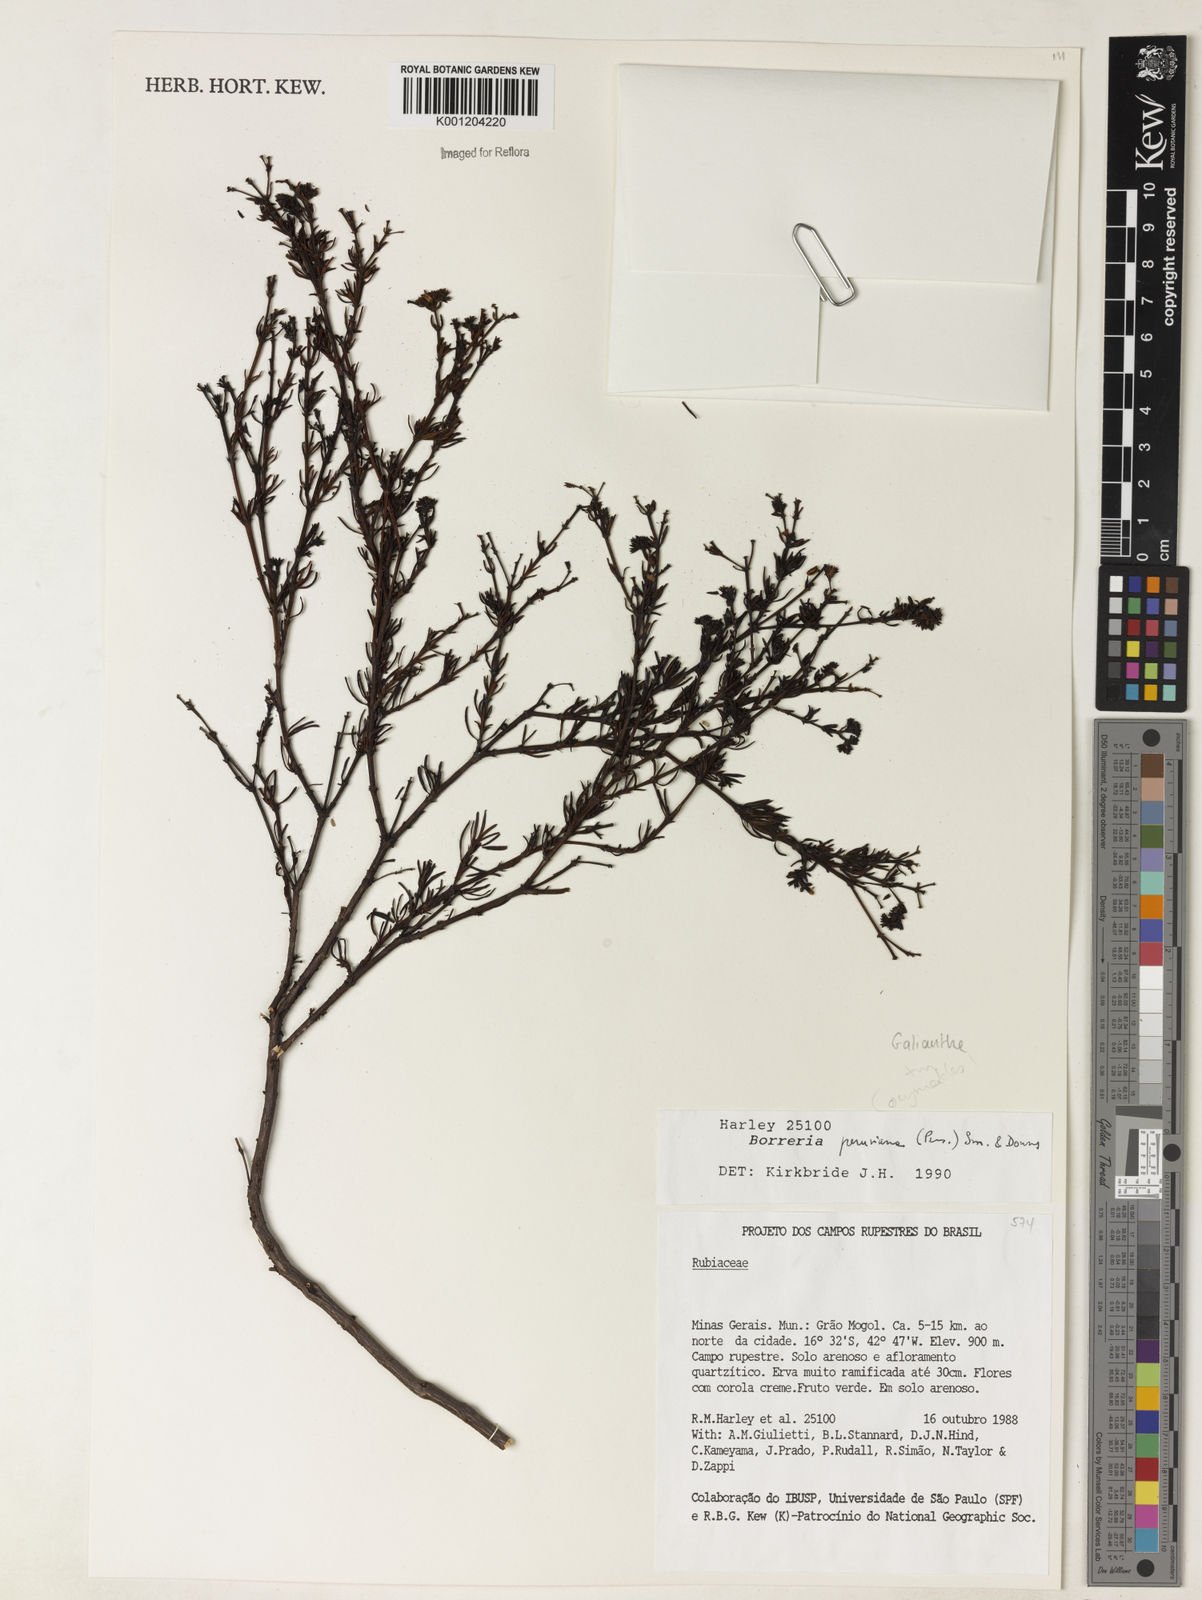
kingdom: Plantae
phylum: Tracheophyta
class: Magnoliopsida
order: Gentianales
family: Rubiaceae
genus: Galianthe
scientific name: Galianthe peruviana
